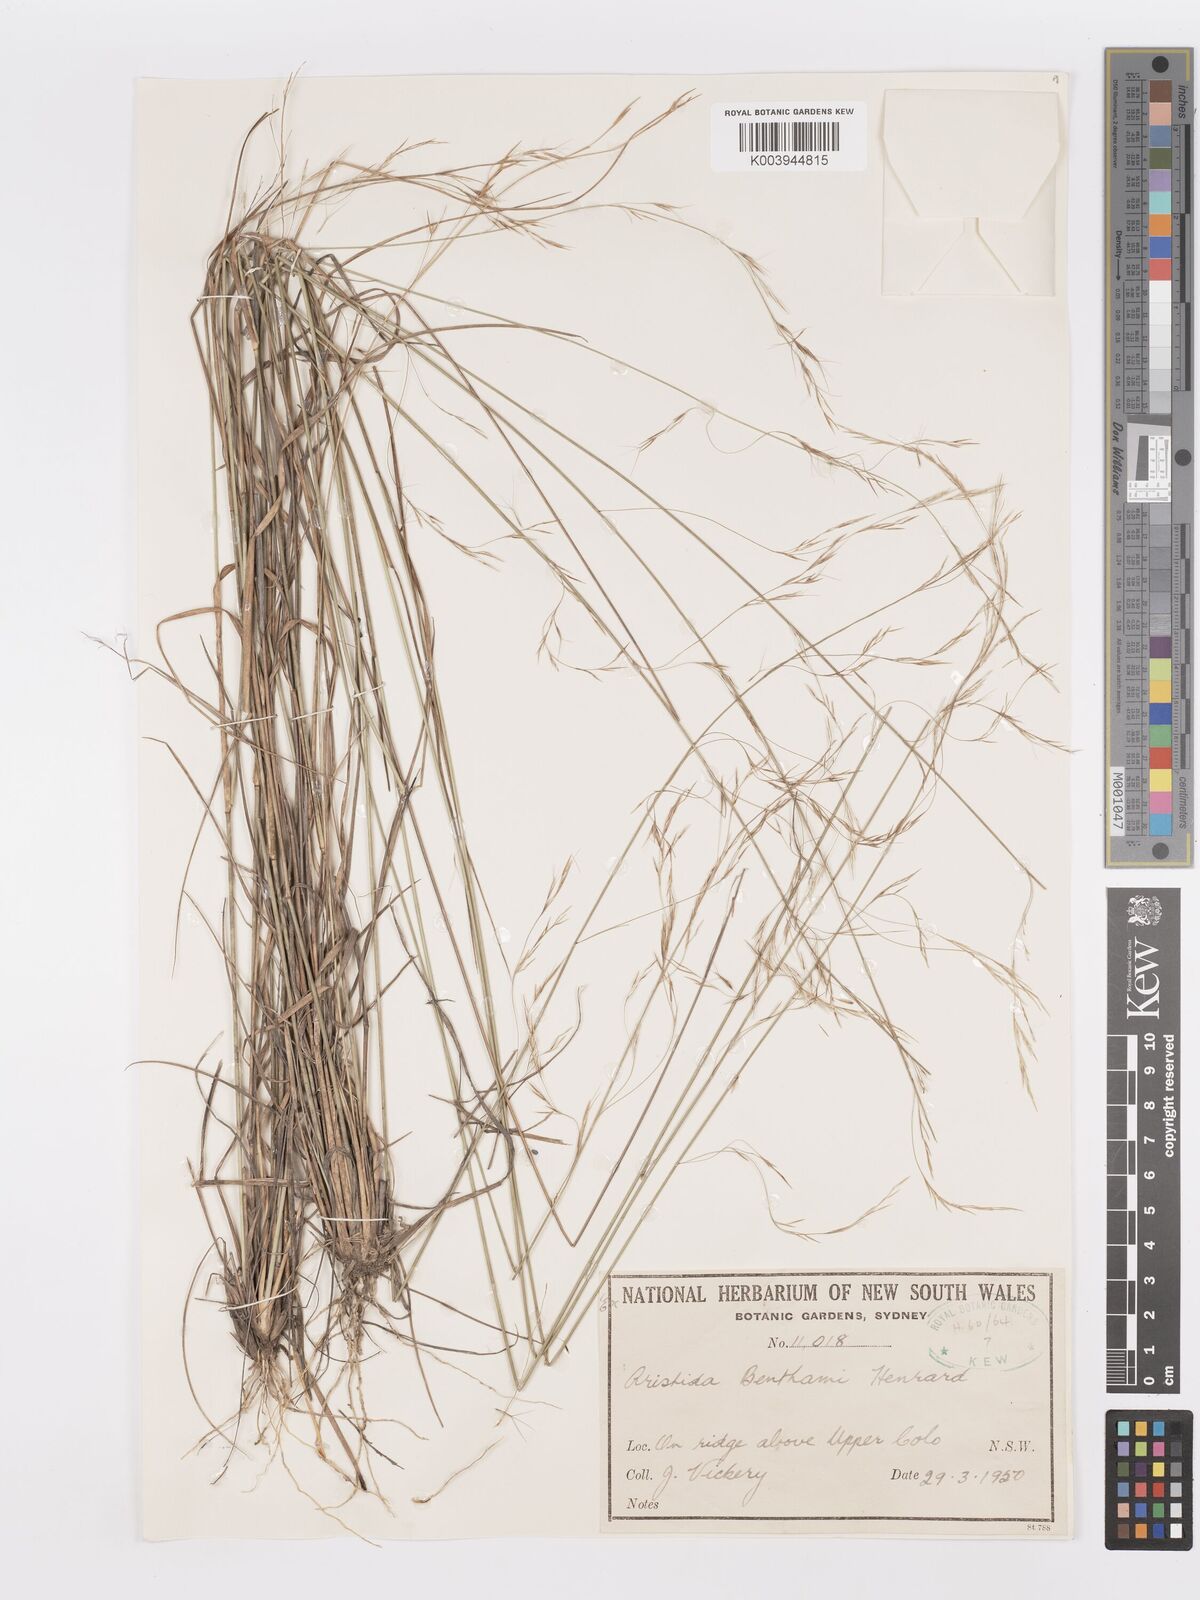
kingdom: Plantae
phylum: Tracheophyta
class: Liliopsida
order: Poales
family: Poaceae
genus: Aristida
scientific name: Aristida benthamii
